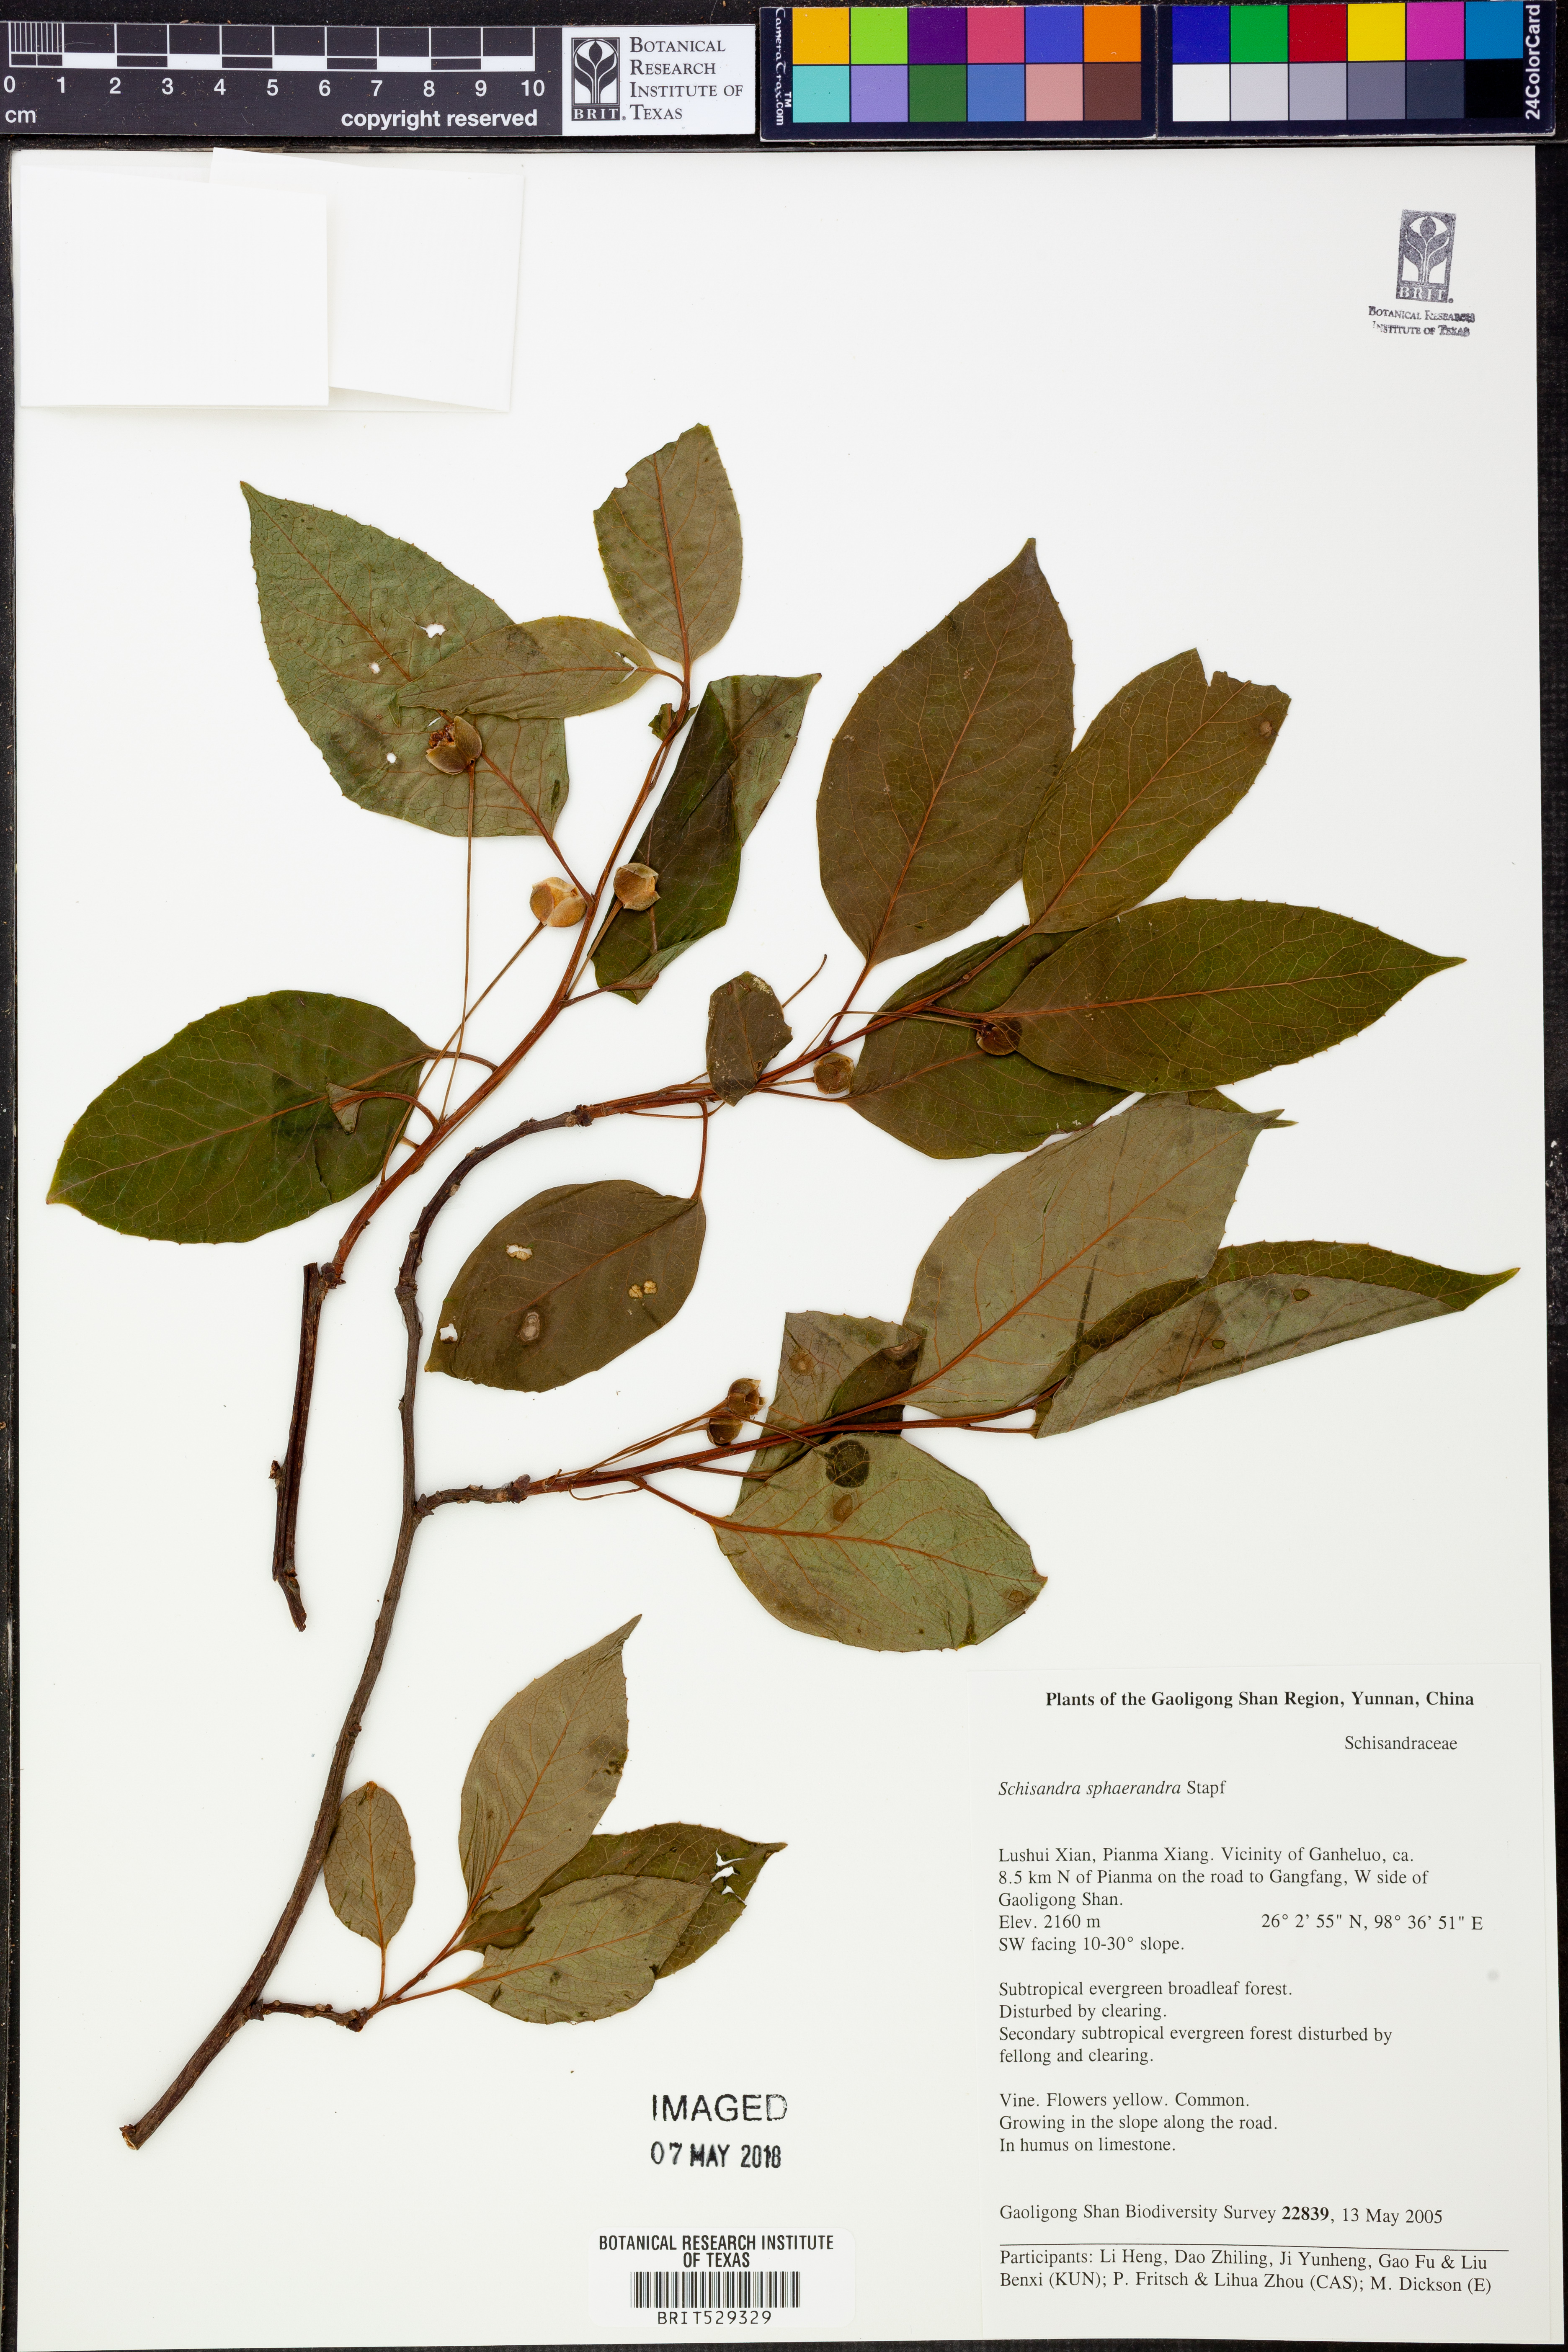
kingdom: Plantae
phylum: Tracheophyta
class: Magnoliopsida
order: Austrobaileyales
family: Schisandraceae
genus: Schisandra
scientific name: Schisandra sphaerandra
